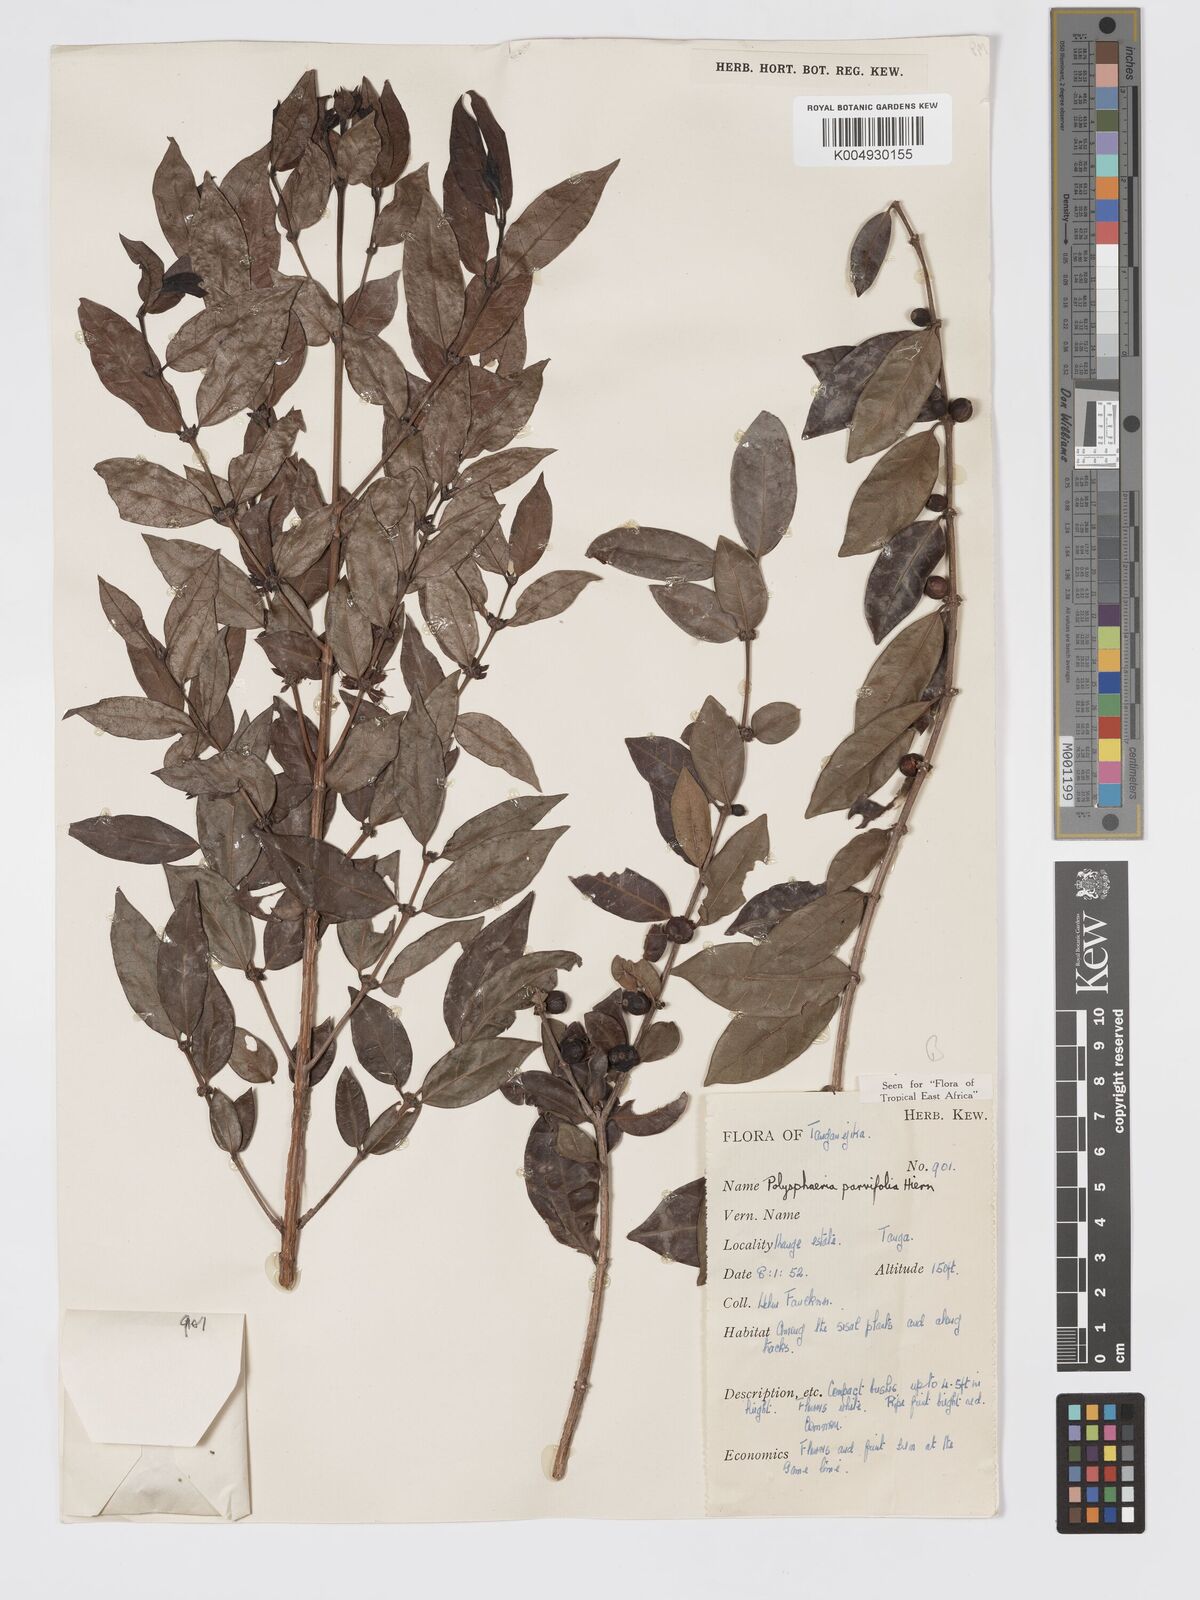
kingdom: Plantae
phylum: Tracheophyta
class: Magnoliopsida
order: Gentianales
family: Rubiaceae
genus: Polysphaeria
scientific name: Polysphaeria parvifolia
